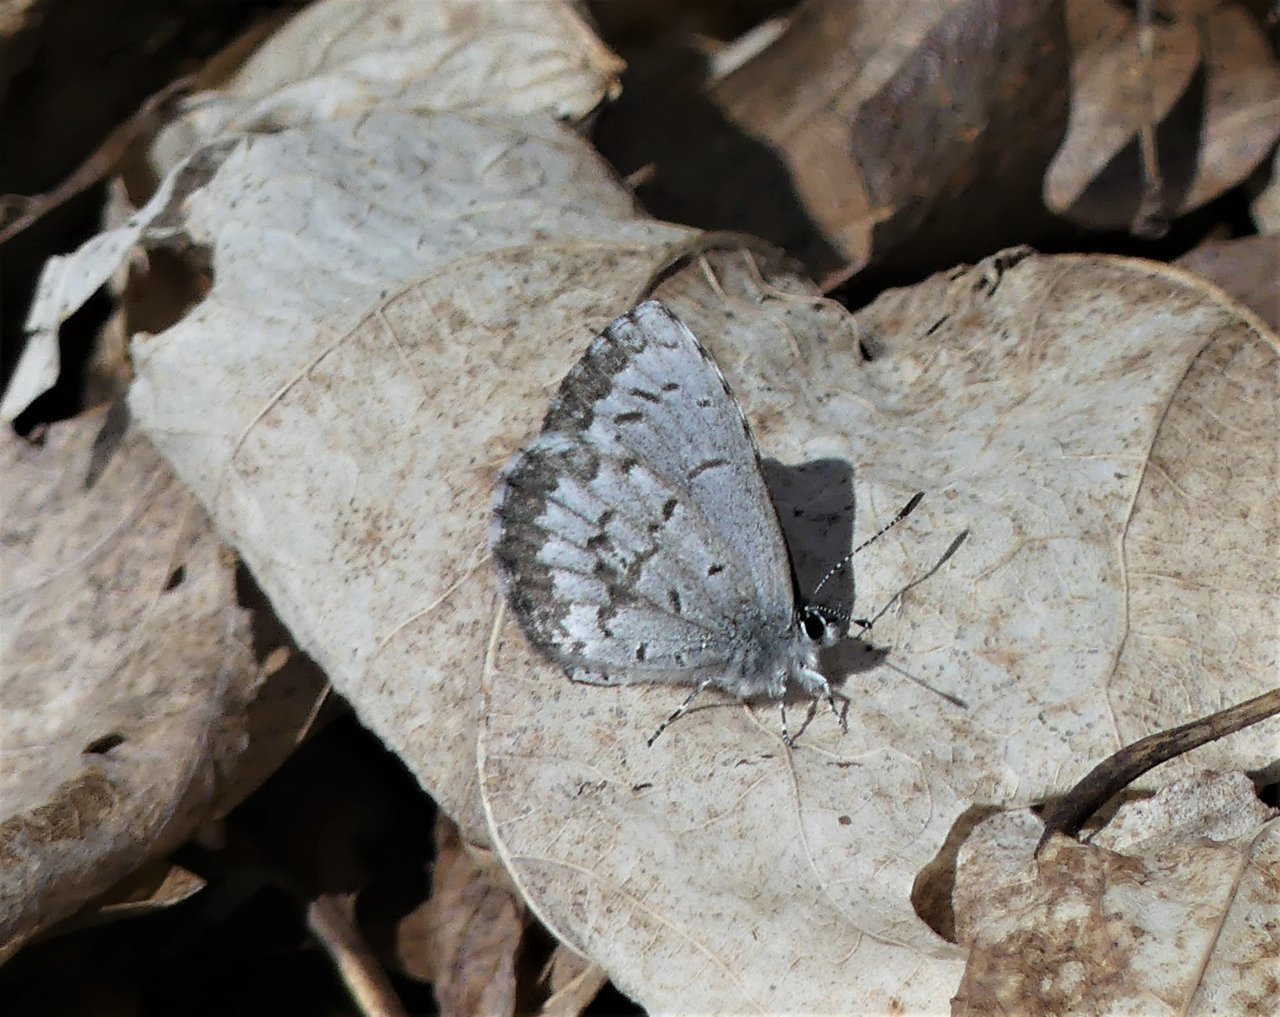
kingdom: Animalia
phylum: Arthropoda
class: Insecta
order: Lepidoptera
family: Lycaenidae
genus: Celastrina
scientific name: Celastrina lucia
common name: Northern Spring Azure
